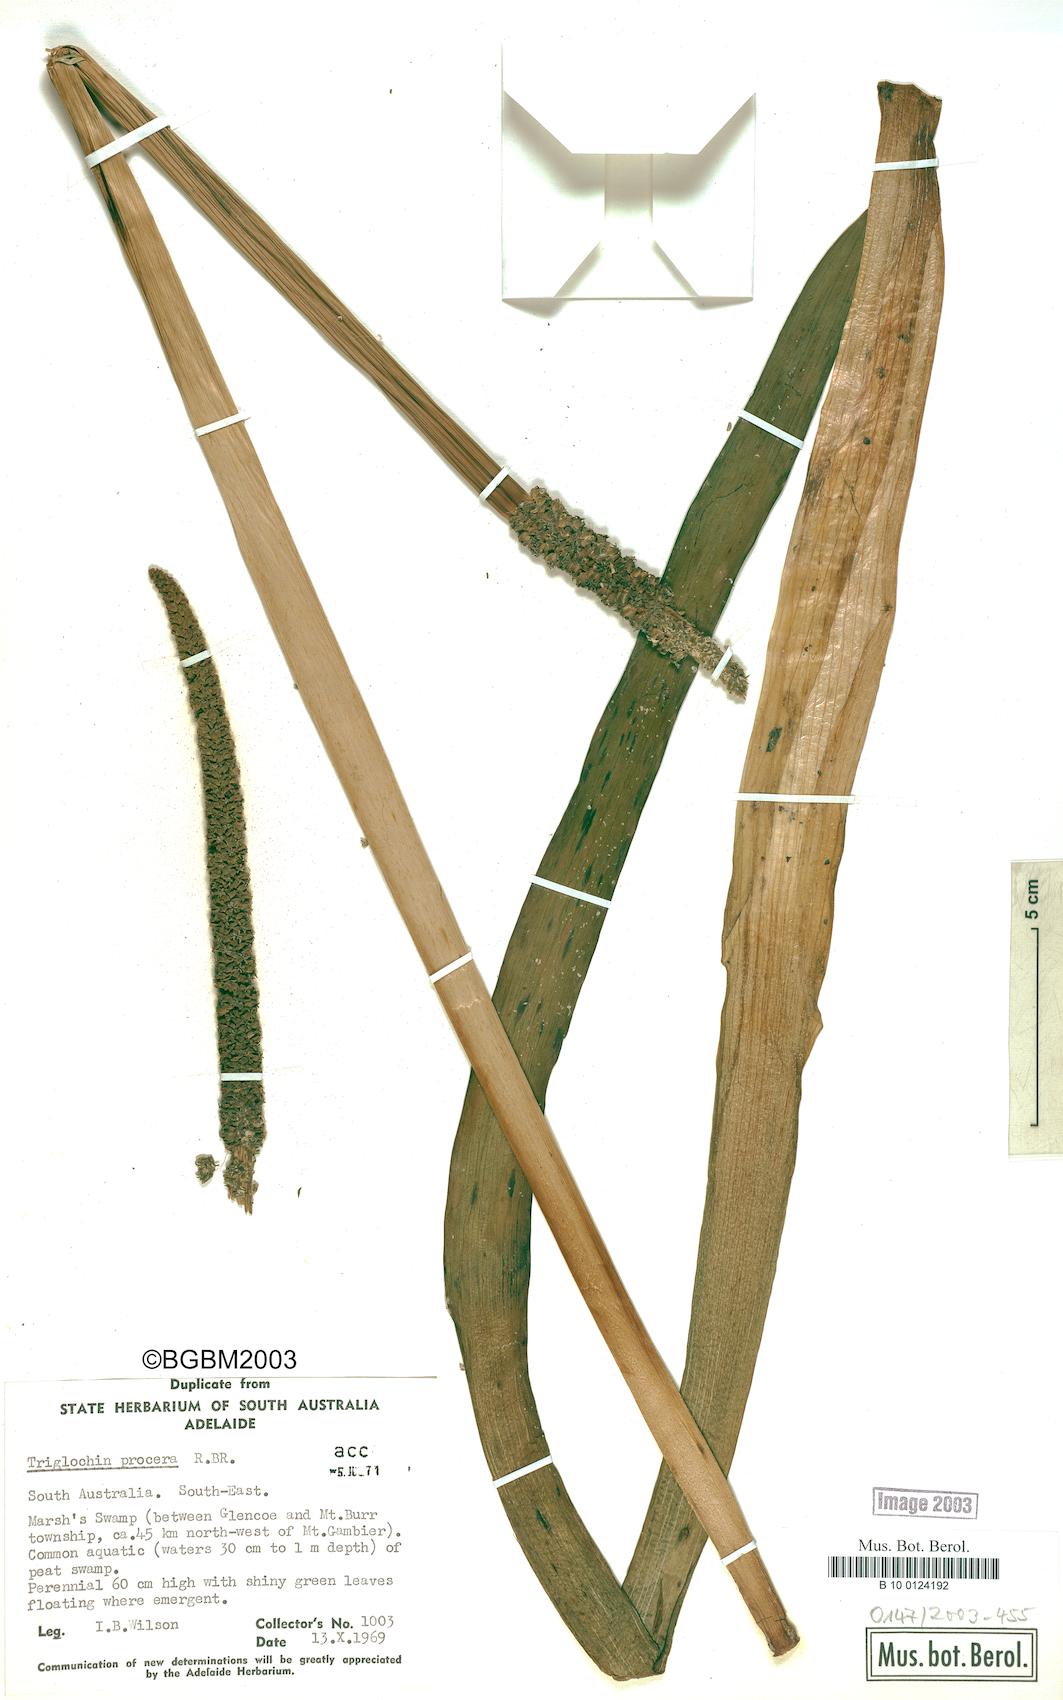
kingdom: Plantae
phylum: Tracheophyta
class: Liliopsida
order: Alismatales
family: Juncaginaceae
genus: Cycnogeton
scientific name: Cycnogeton procerum
